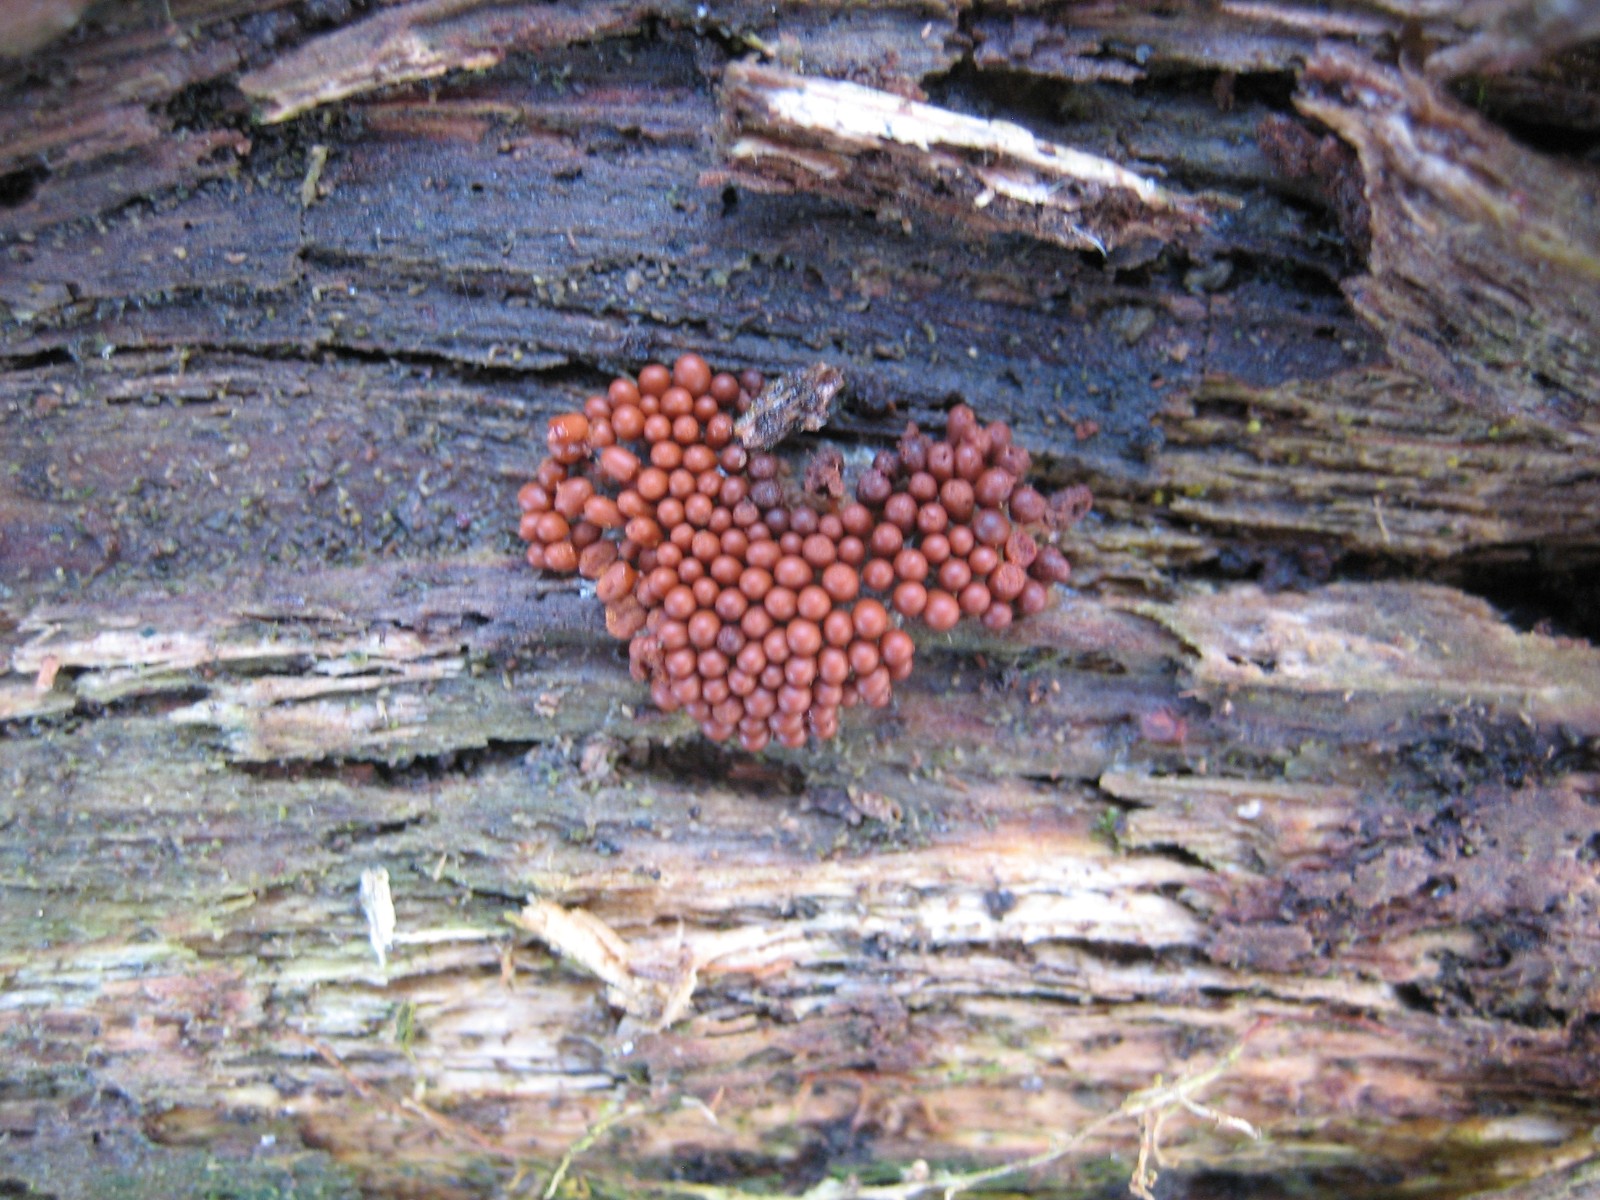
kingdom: Protozoa
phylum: Mycetozoa
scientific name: Mycetozoa
